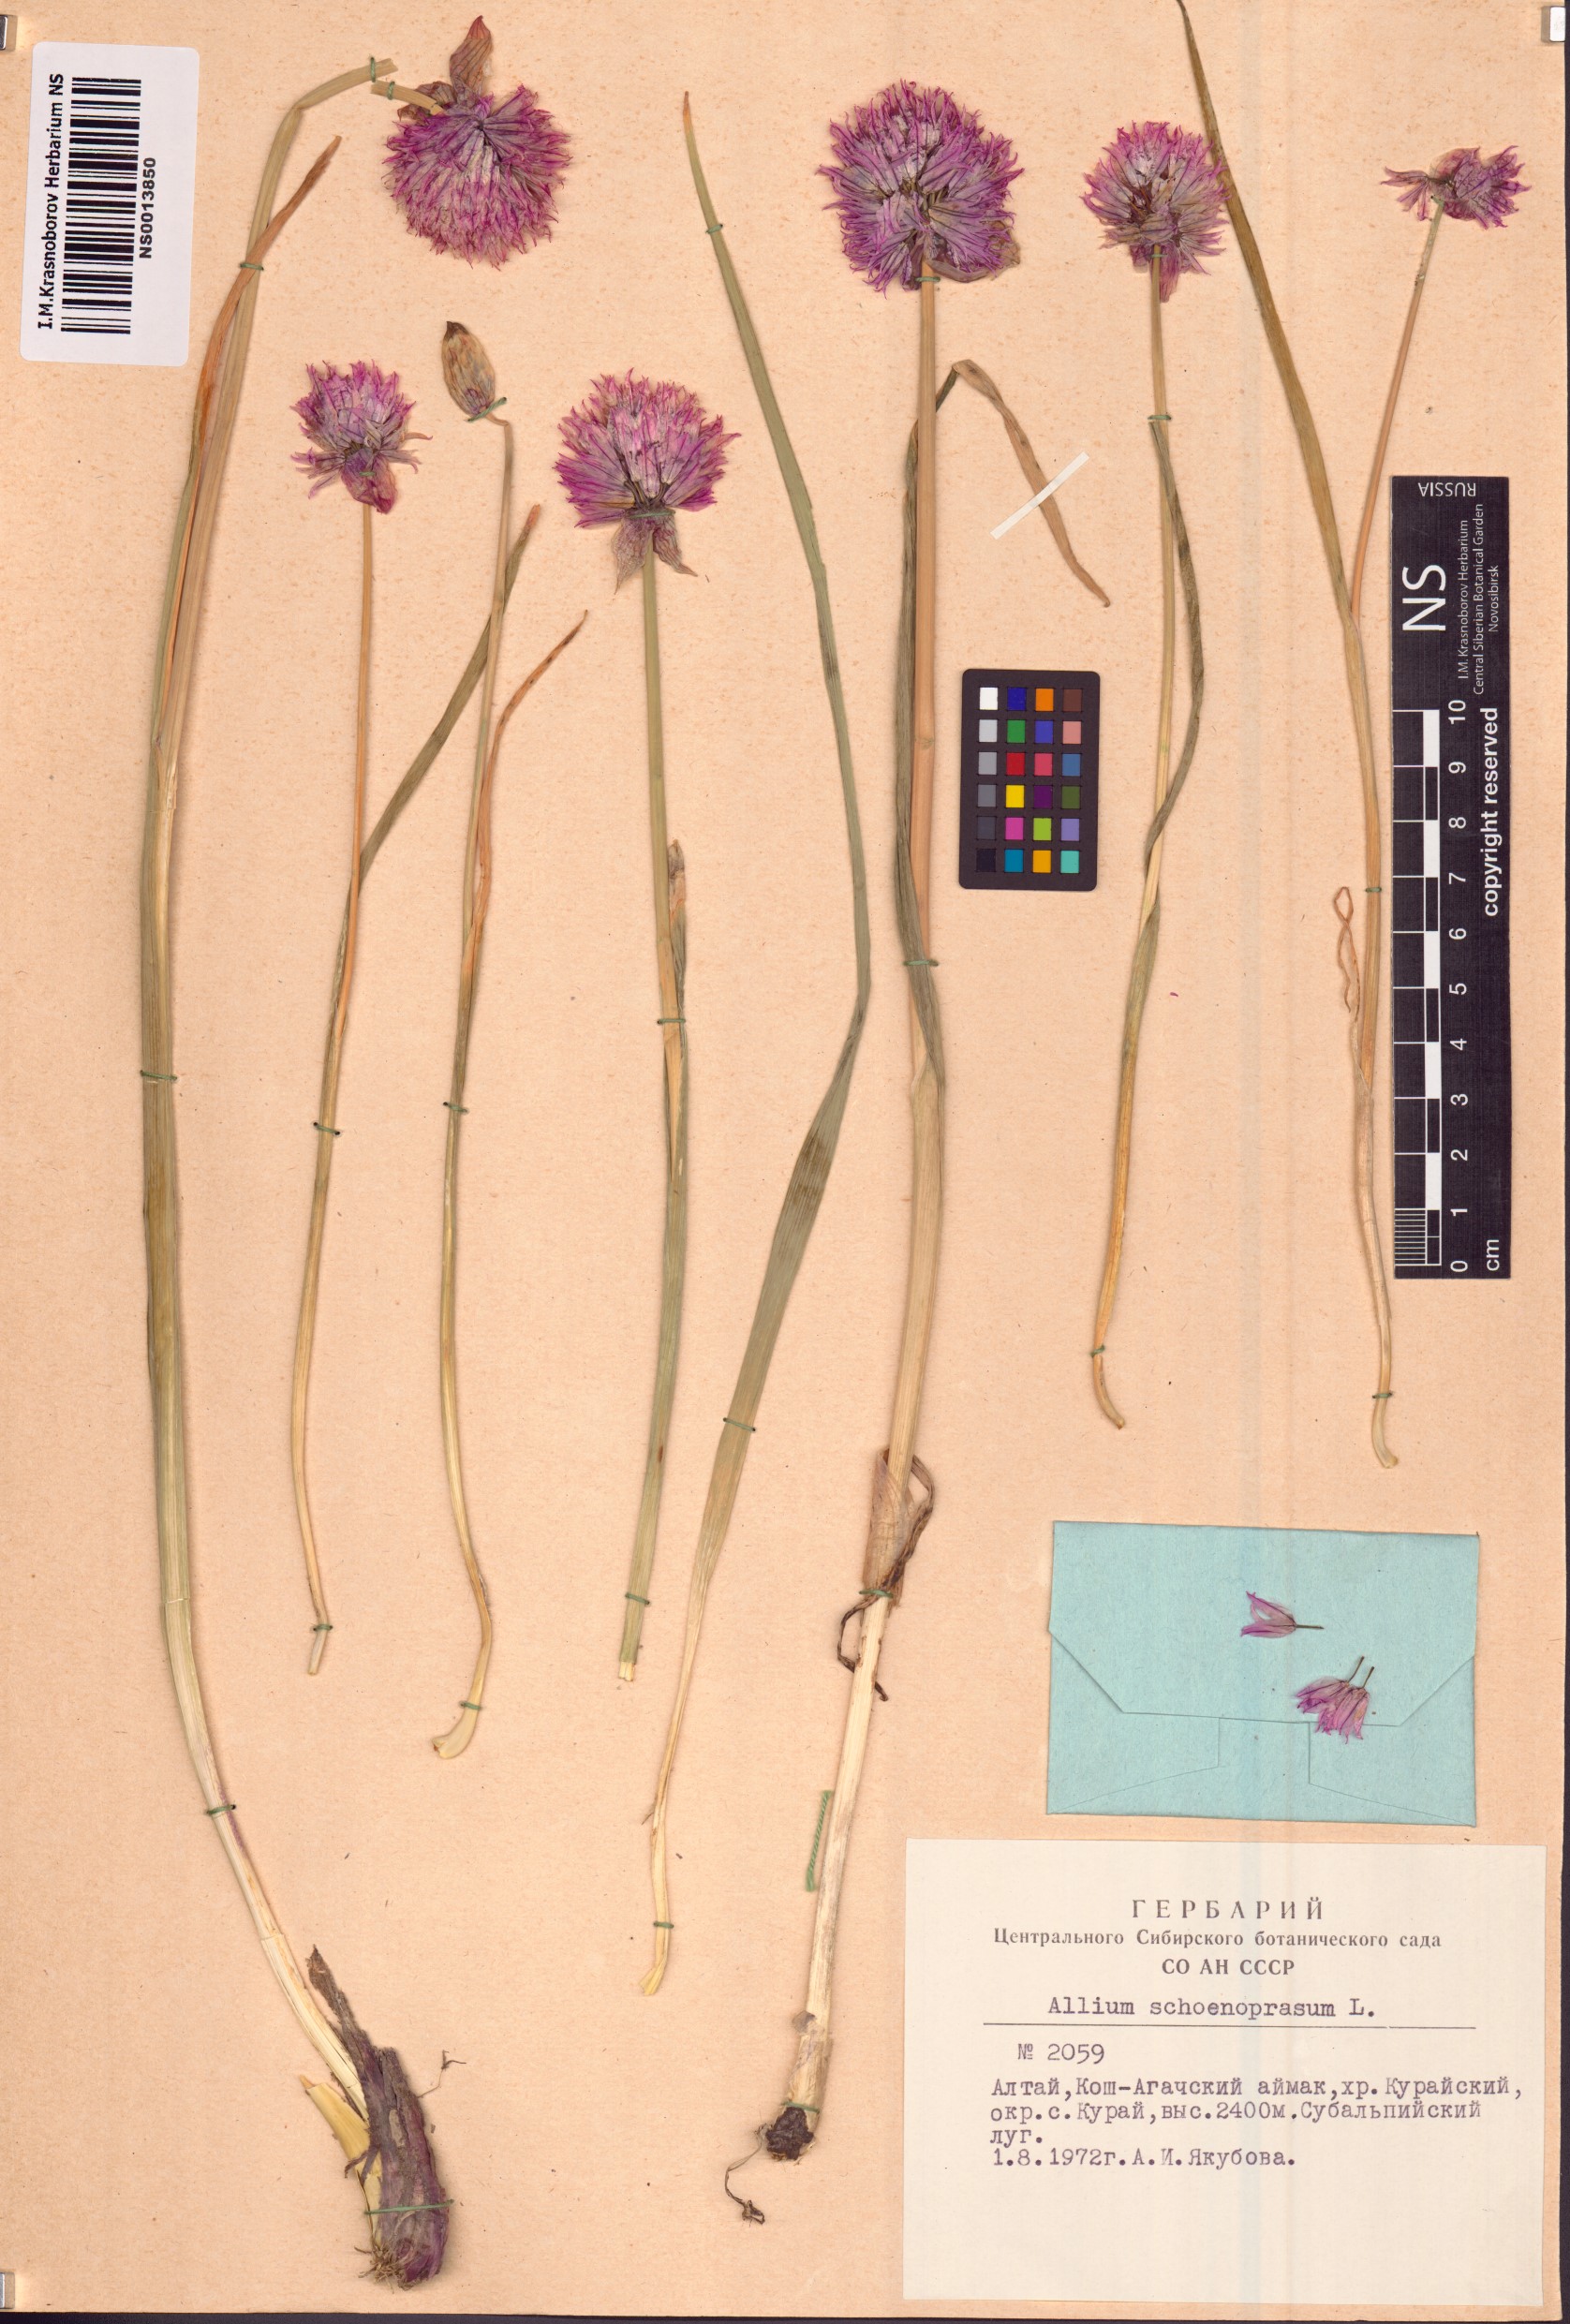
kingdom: Plantae
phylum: Tracheophyta
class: Liliopsida
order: Asparagales
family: Amaryllidaceae
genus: Allium
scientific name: Allium schoenoprasum
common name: Chives
